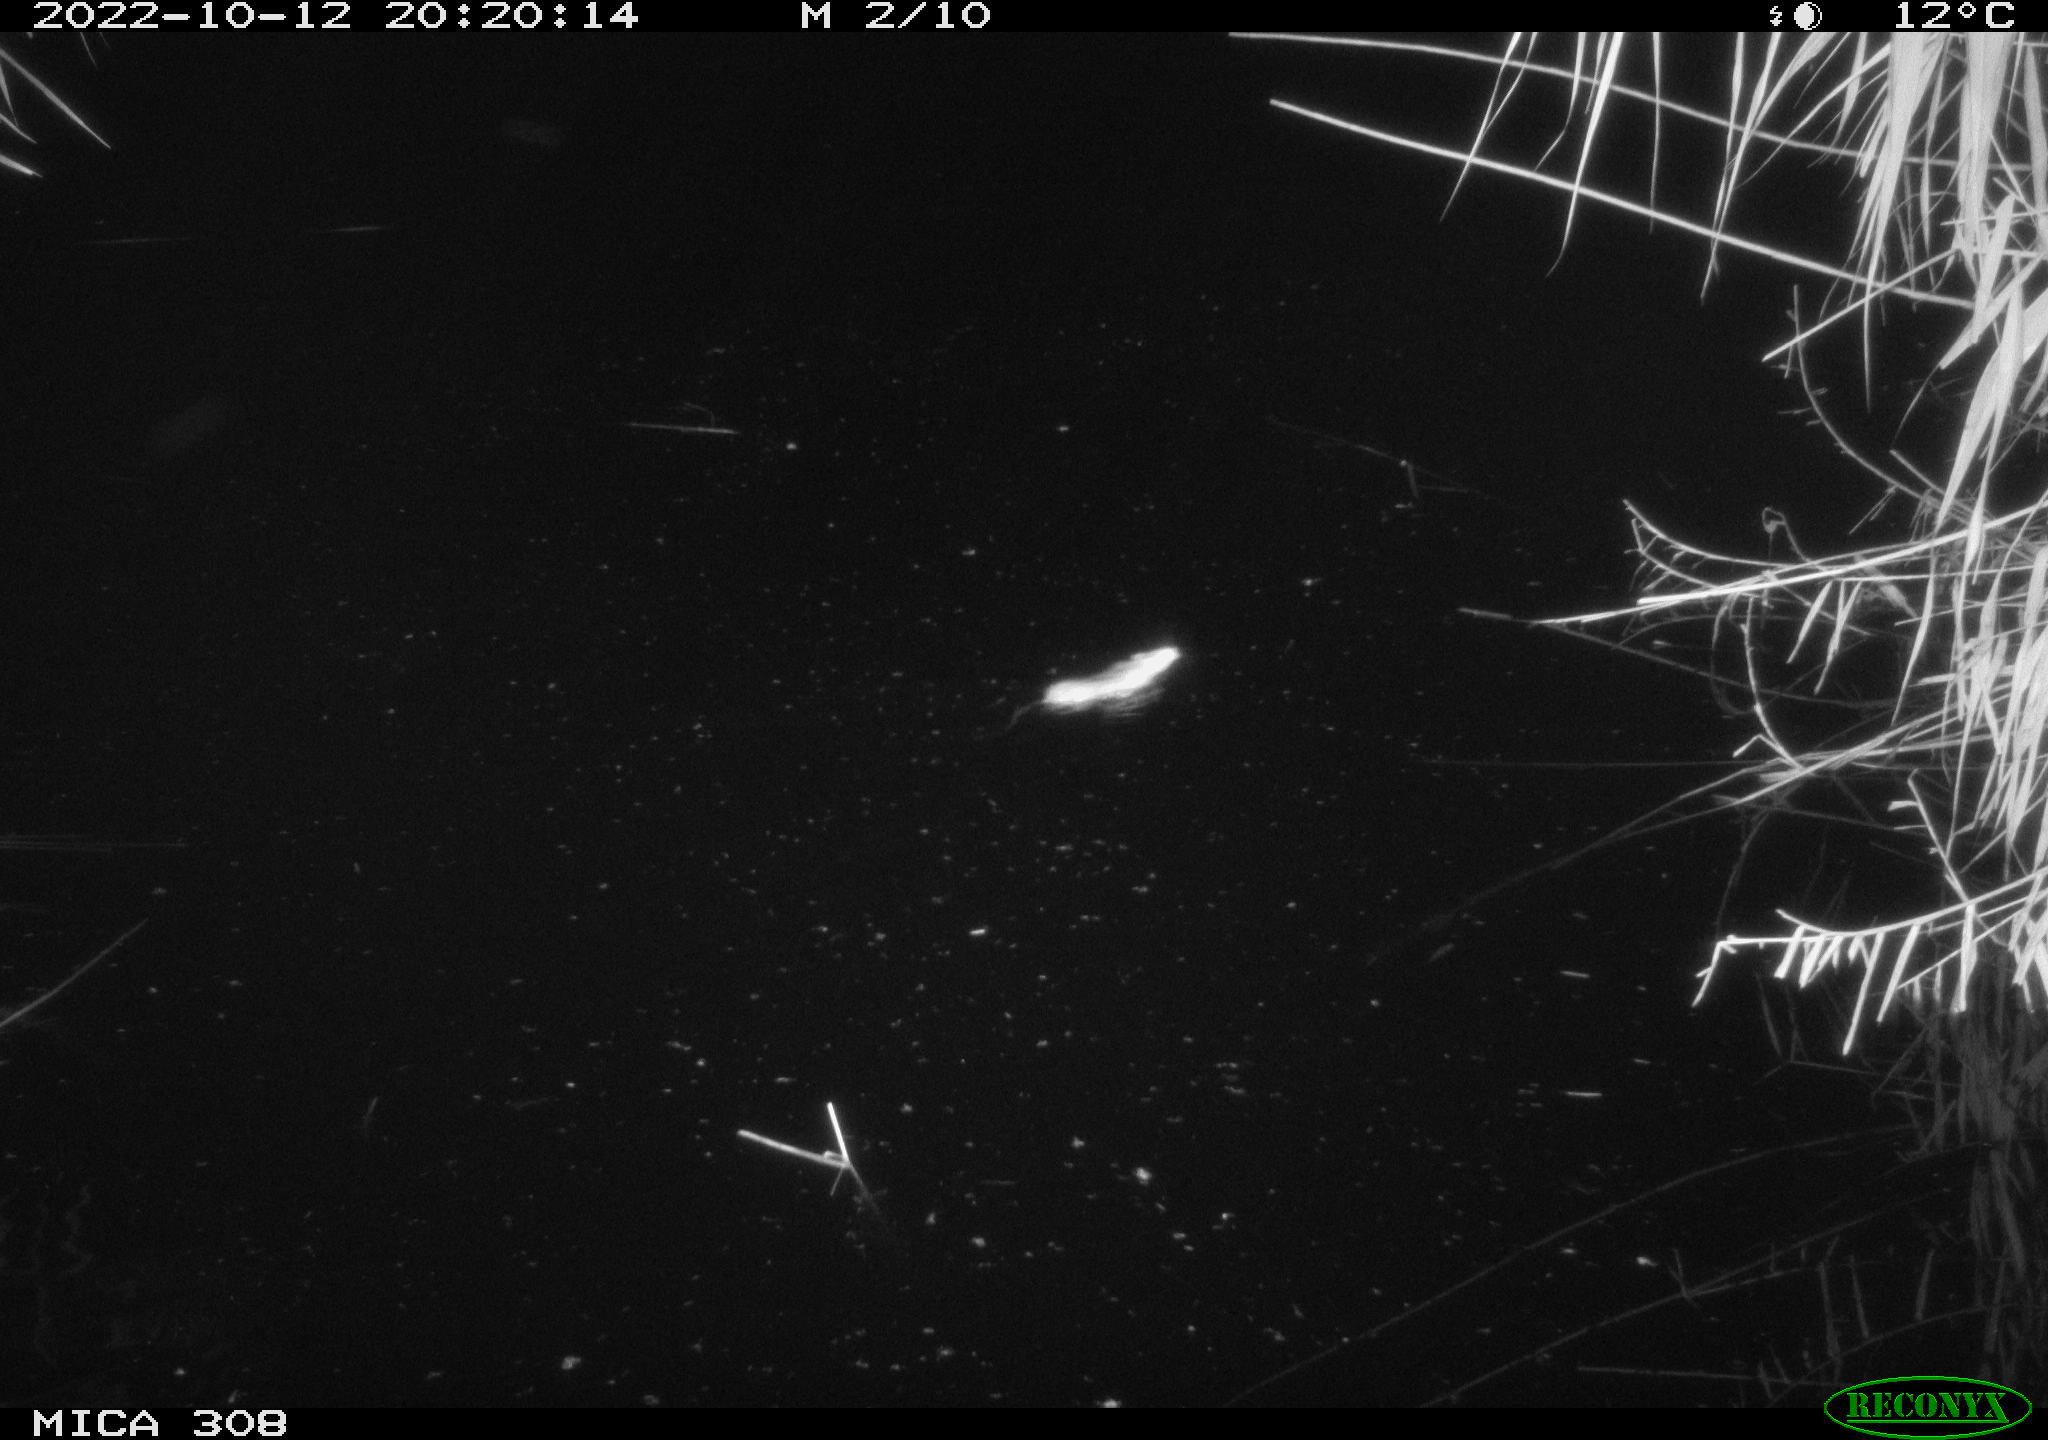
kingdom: Animalia
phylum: Chordata
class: Mammalia
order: Rodentia
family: Muridae
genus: Rattus
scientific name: Rattus norvegicus
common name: Brown rat
